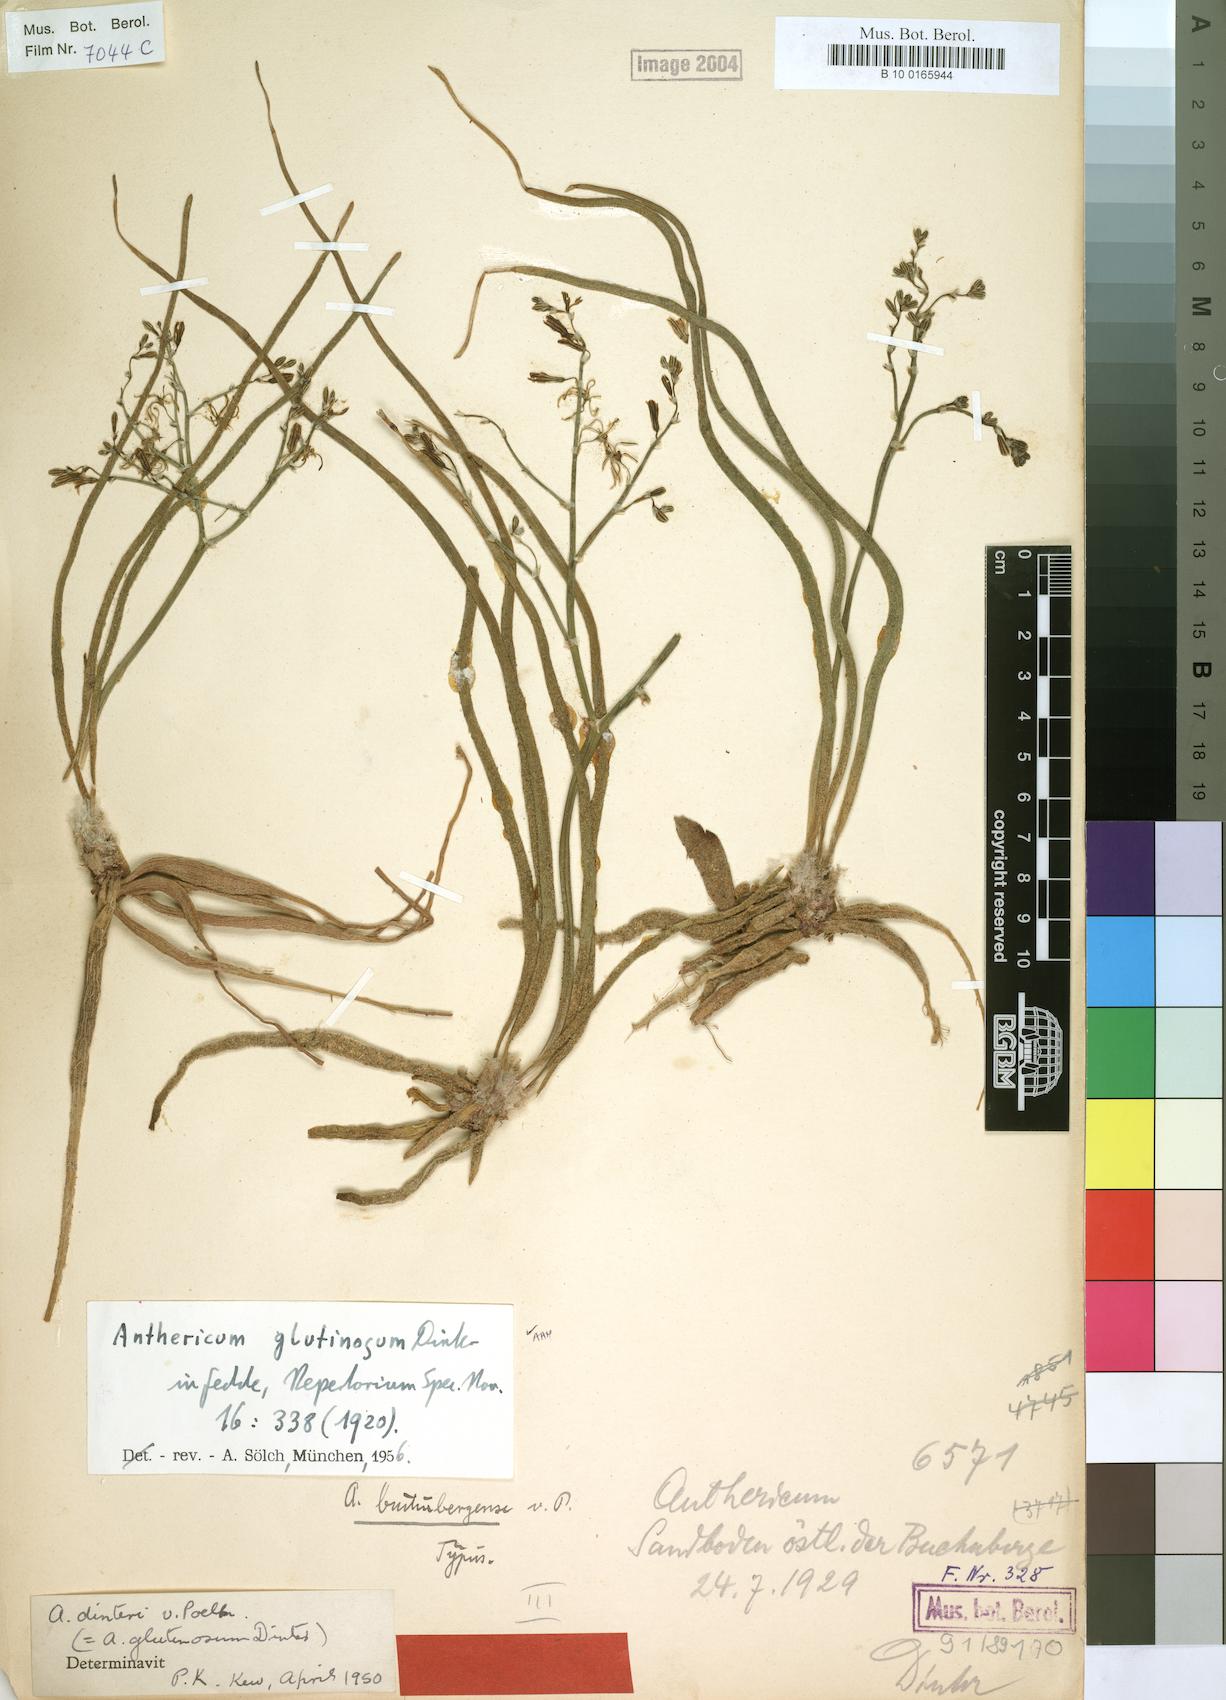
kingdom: Plantae
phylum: Tracheophyta
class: Liliopsida
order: Asparagales
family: Asphodelaceae
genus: Trachyandra
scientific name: Trachyandra laxa
